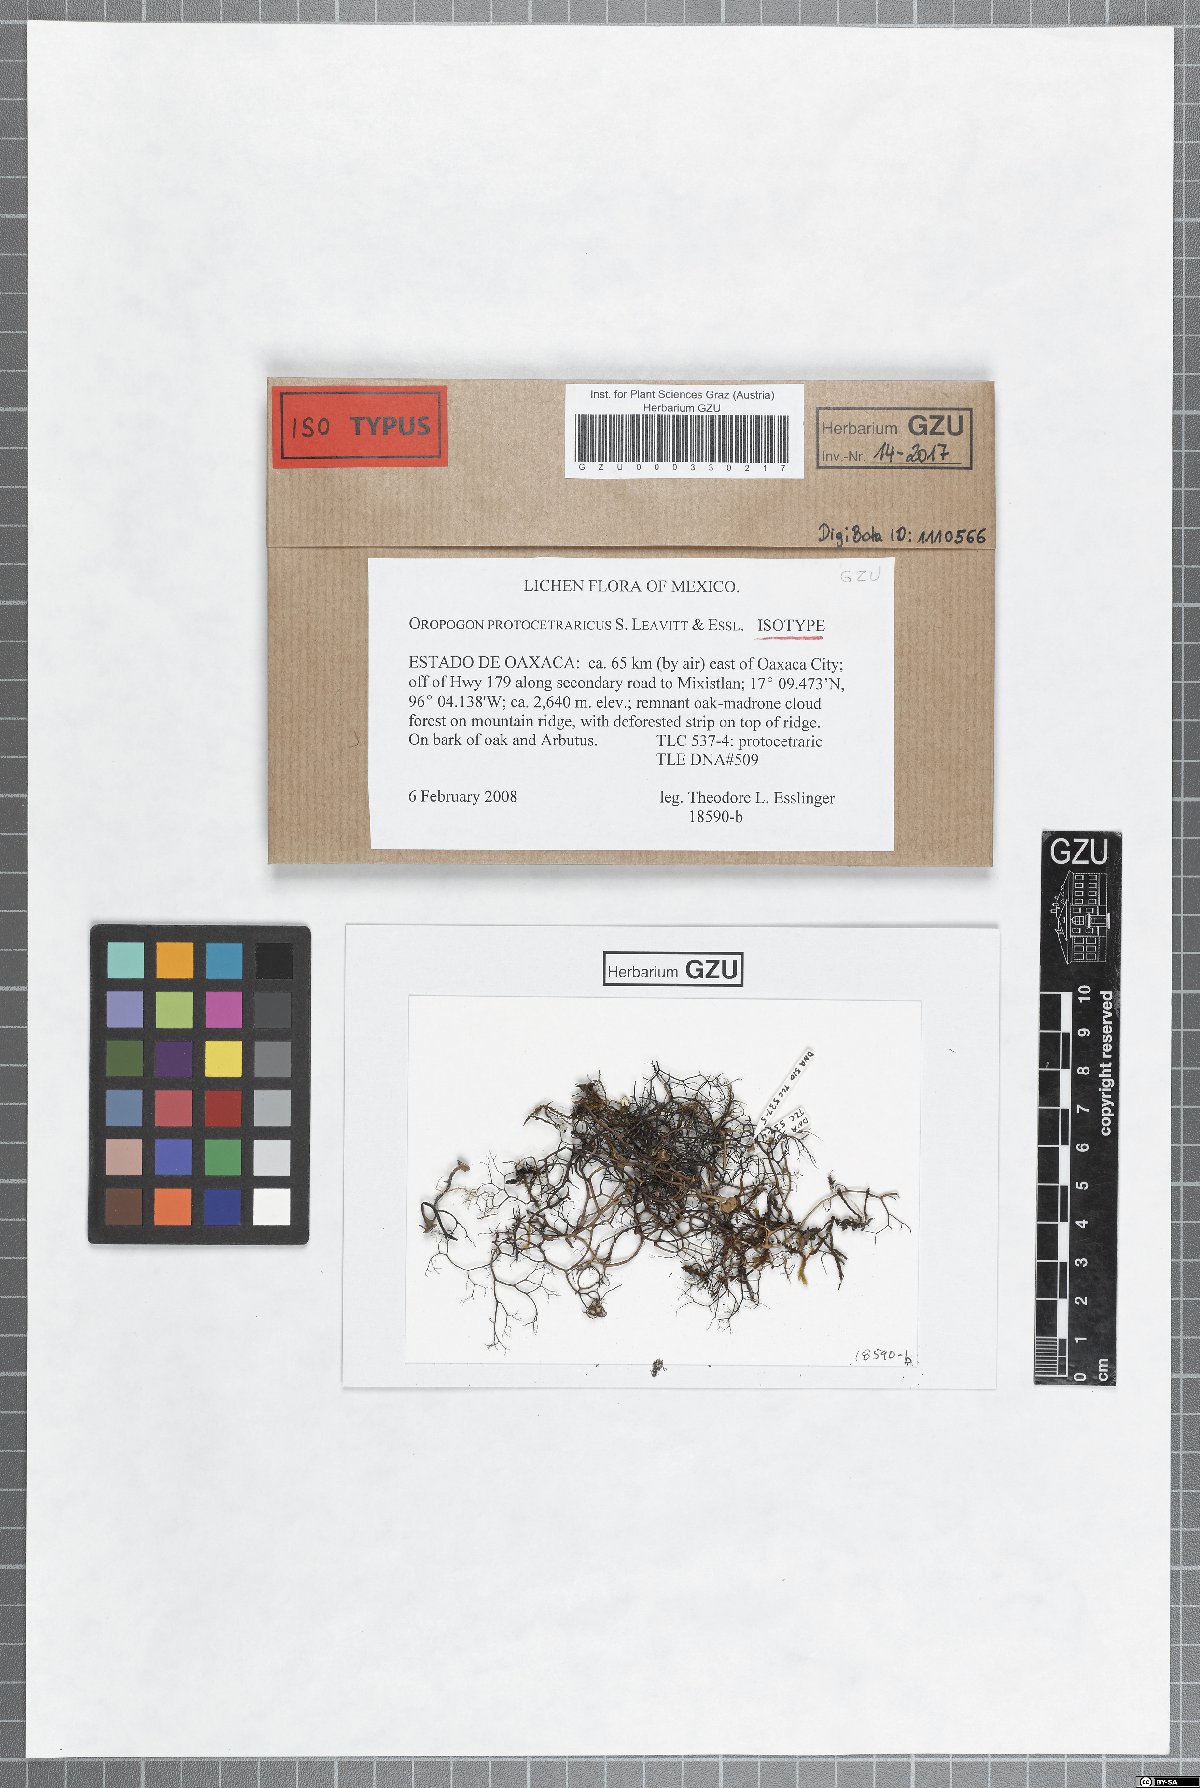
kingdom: Fungi
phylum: Ascomycota
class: Lecanoromycetes
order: Lecanorales
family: Parmeliaceae
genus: Oropogon
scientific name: Oropogon protocetraricus
